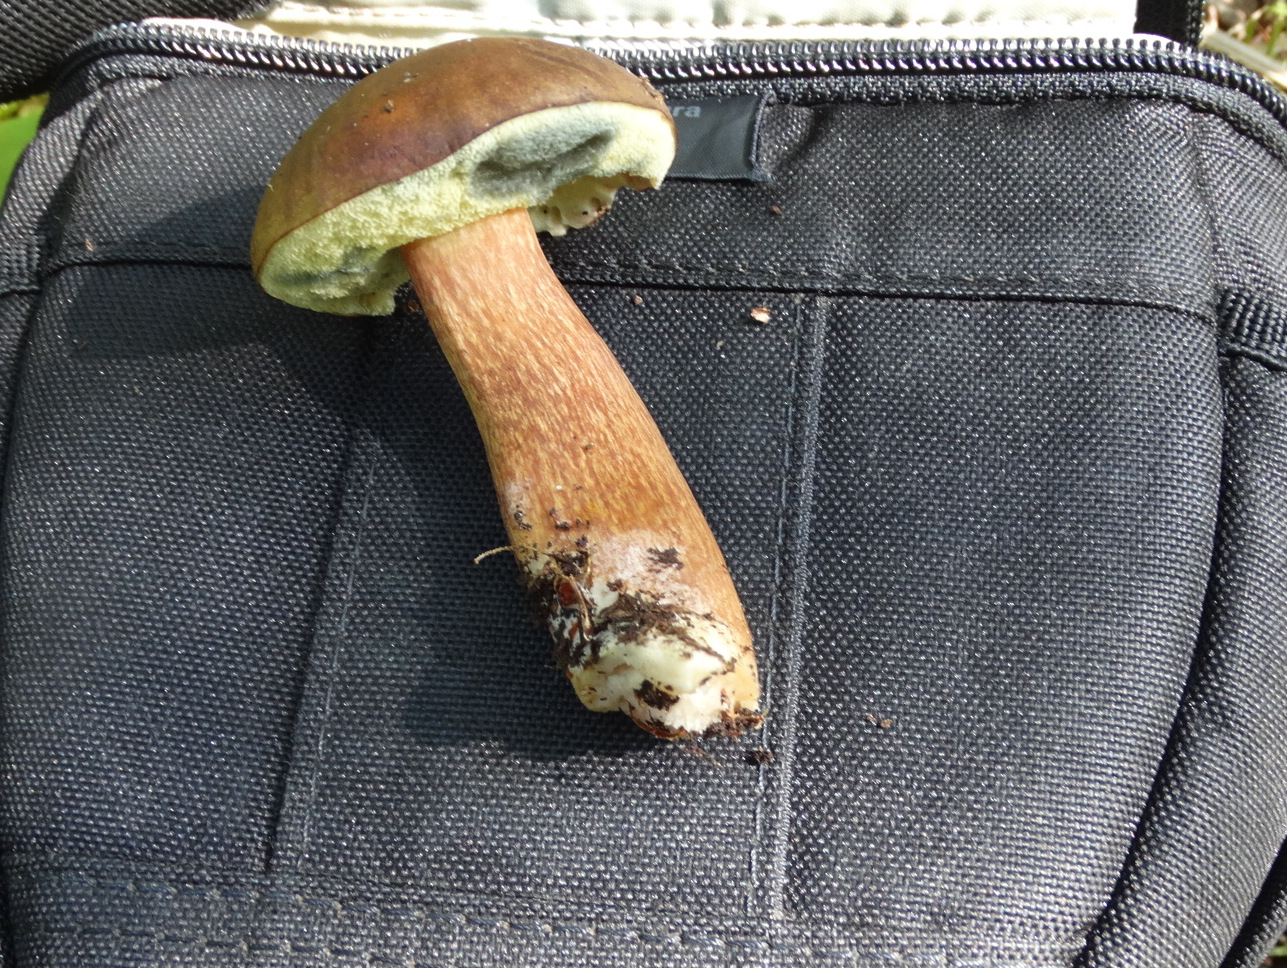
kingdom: Fungi
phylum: Basidiomycota
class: Agaricomycetes
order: Boletales
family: Boletaceae
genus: Imleria
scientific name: Imleria badia
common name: brunstokket rørhat
